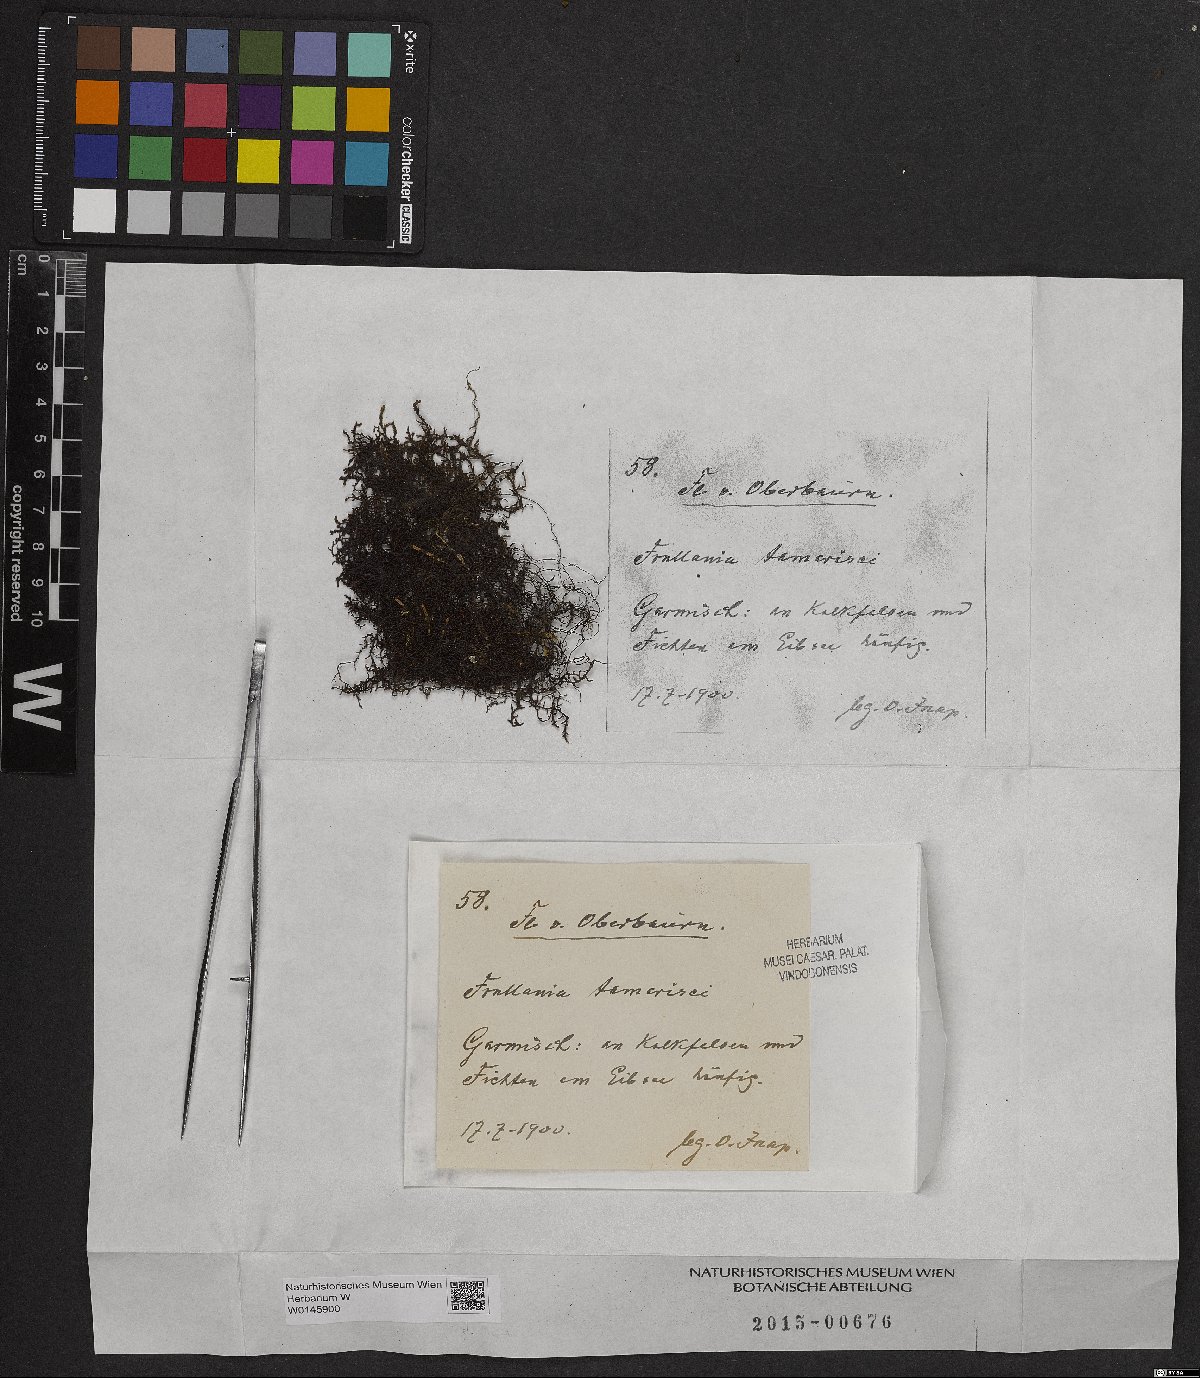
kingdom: Plantae
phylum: Marchantiophyta
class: Jungermanniopsida
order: Porellales
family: Frullaniaceae
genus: Frullania
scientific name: Frullania tamarisci
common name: Tamarisk scalewort
